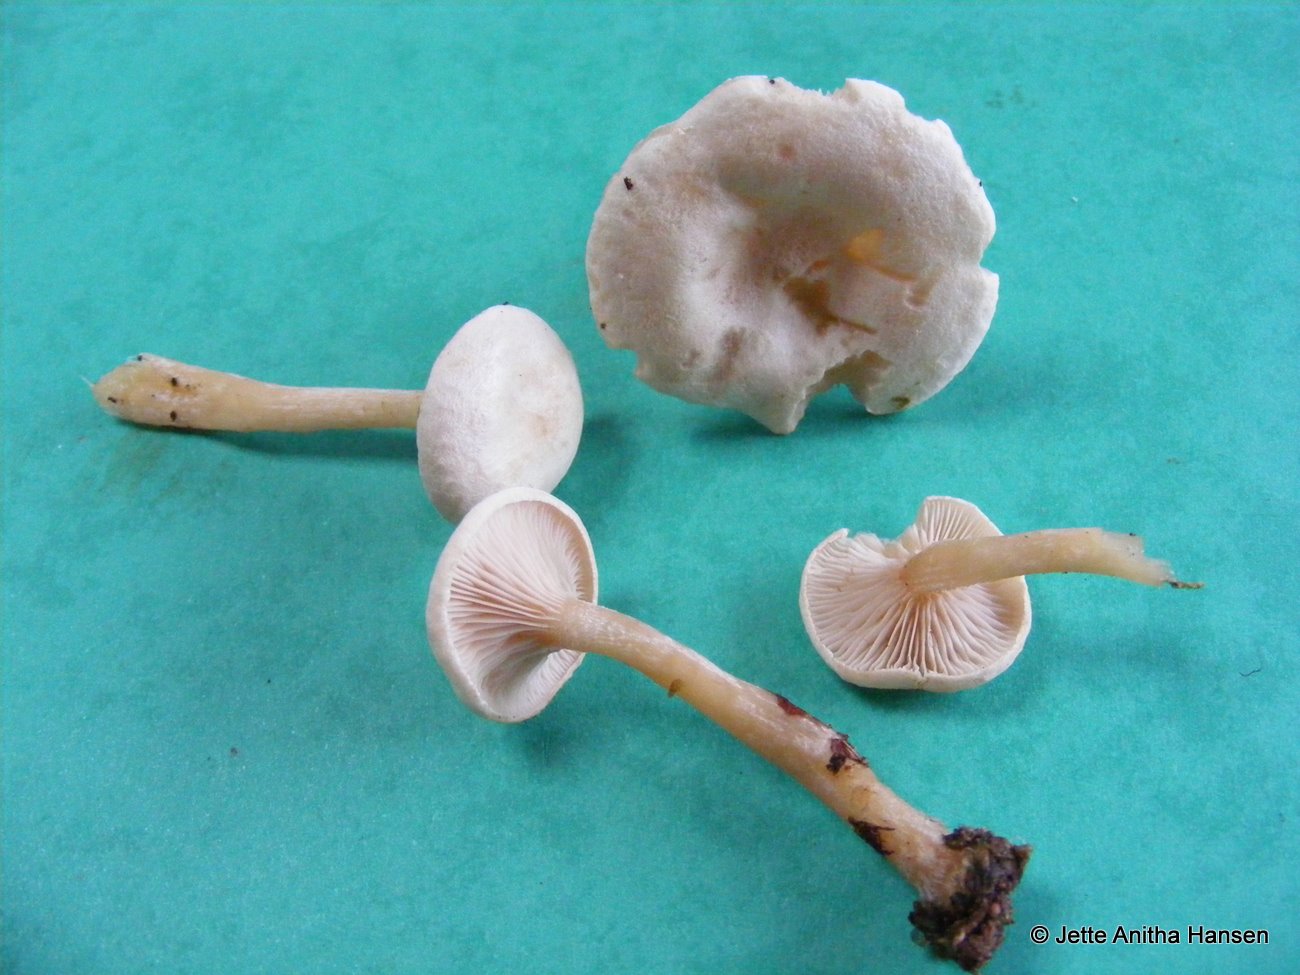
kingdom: Fungi
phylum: Basidiomycota
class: Agaricomycetes
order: Agaricales
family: Tricholomataceae
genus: Ripartites
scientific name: Ripartites tricholoma
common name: almindelig skæghat
